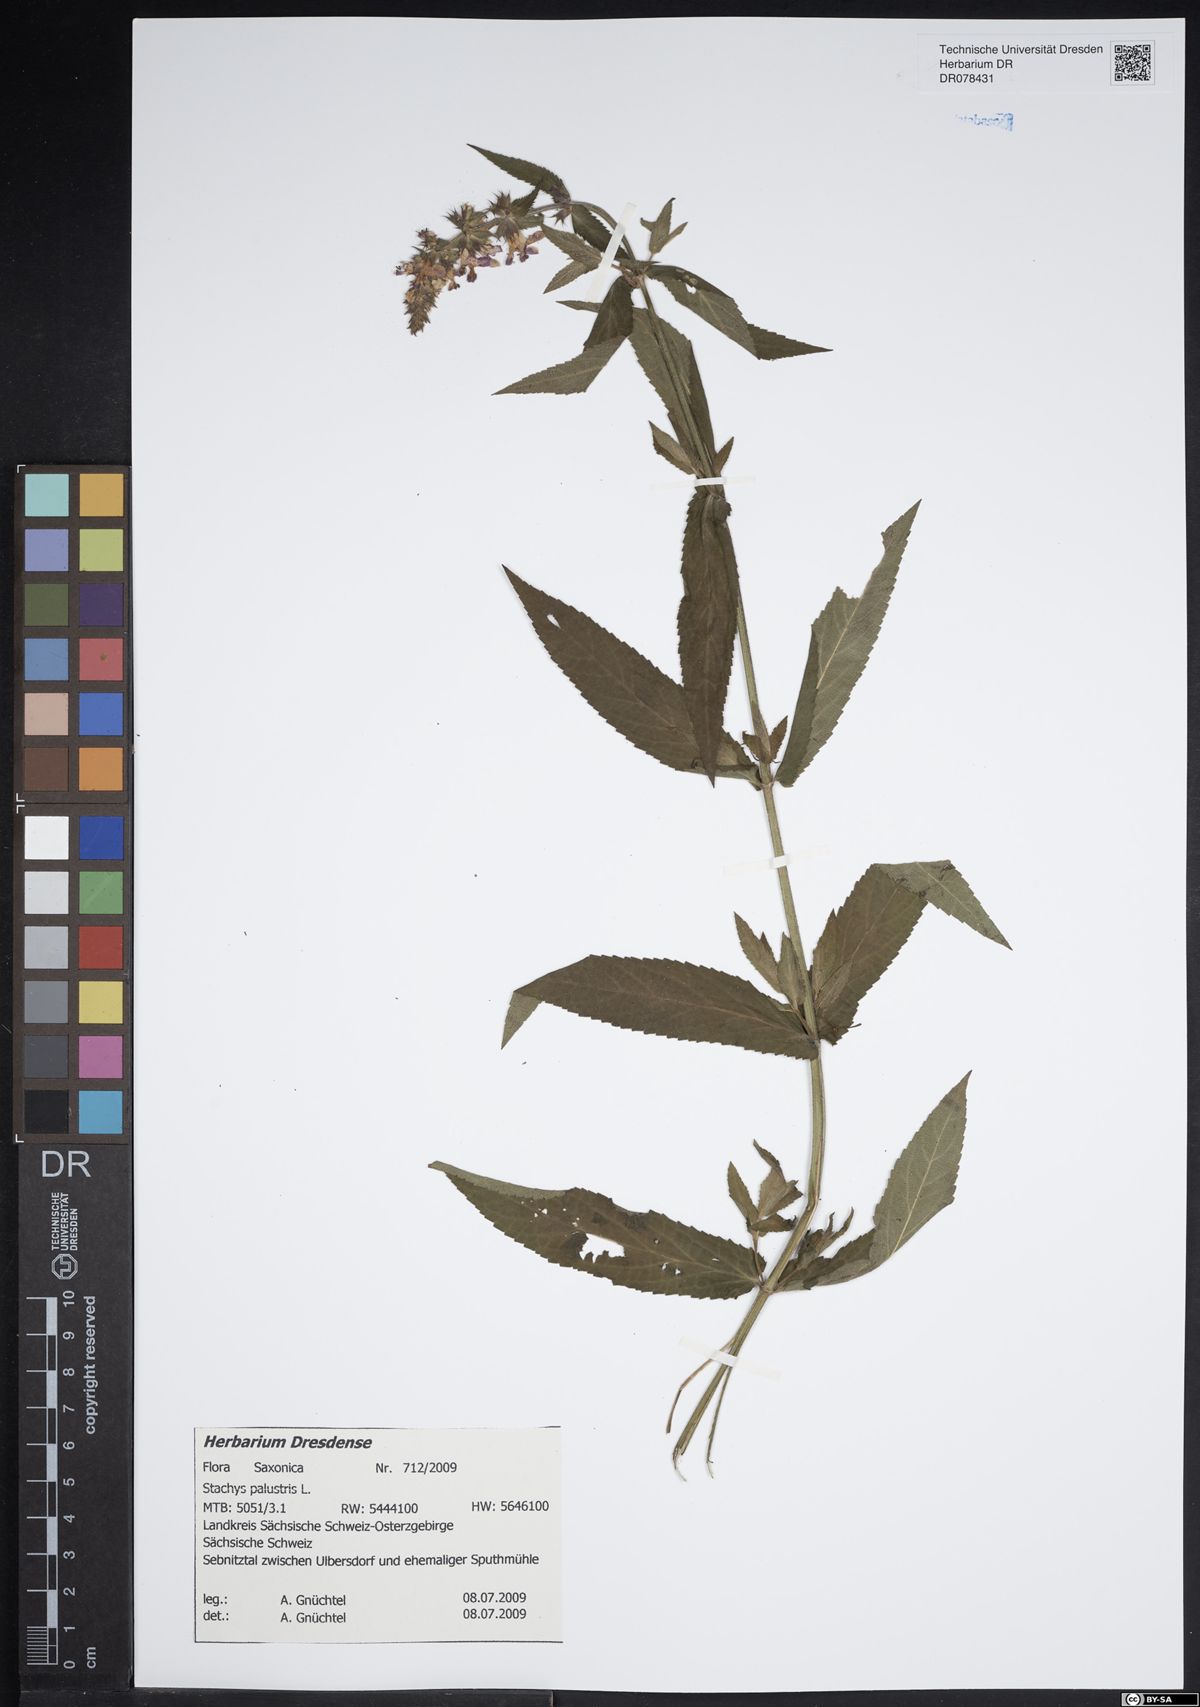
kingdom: Plantae
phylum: Tracheophyta
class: Magnoliopsida
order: Lamiales
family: Lamiaceae
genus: Stachys
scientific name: Stachys palustris
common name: Marsh woundwort
